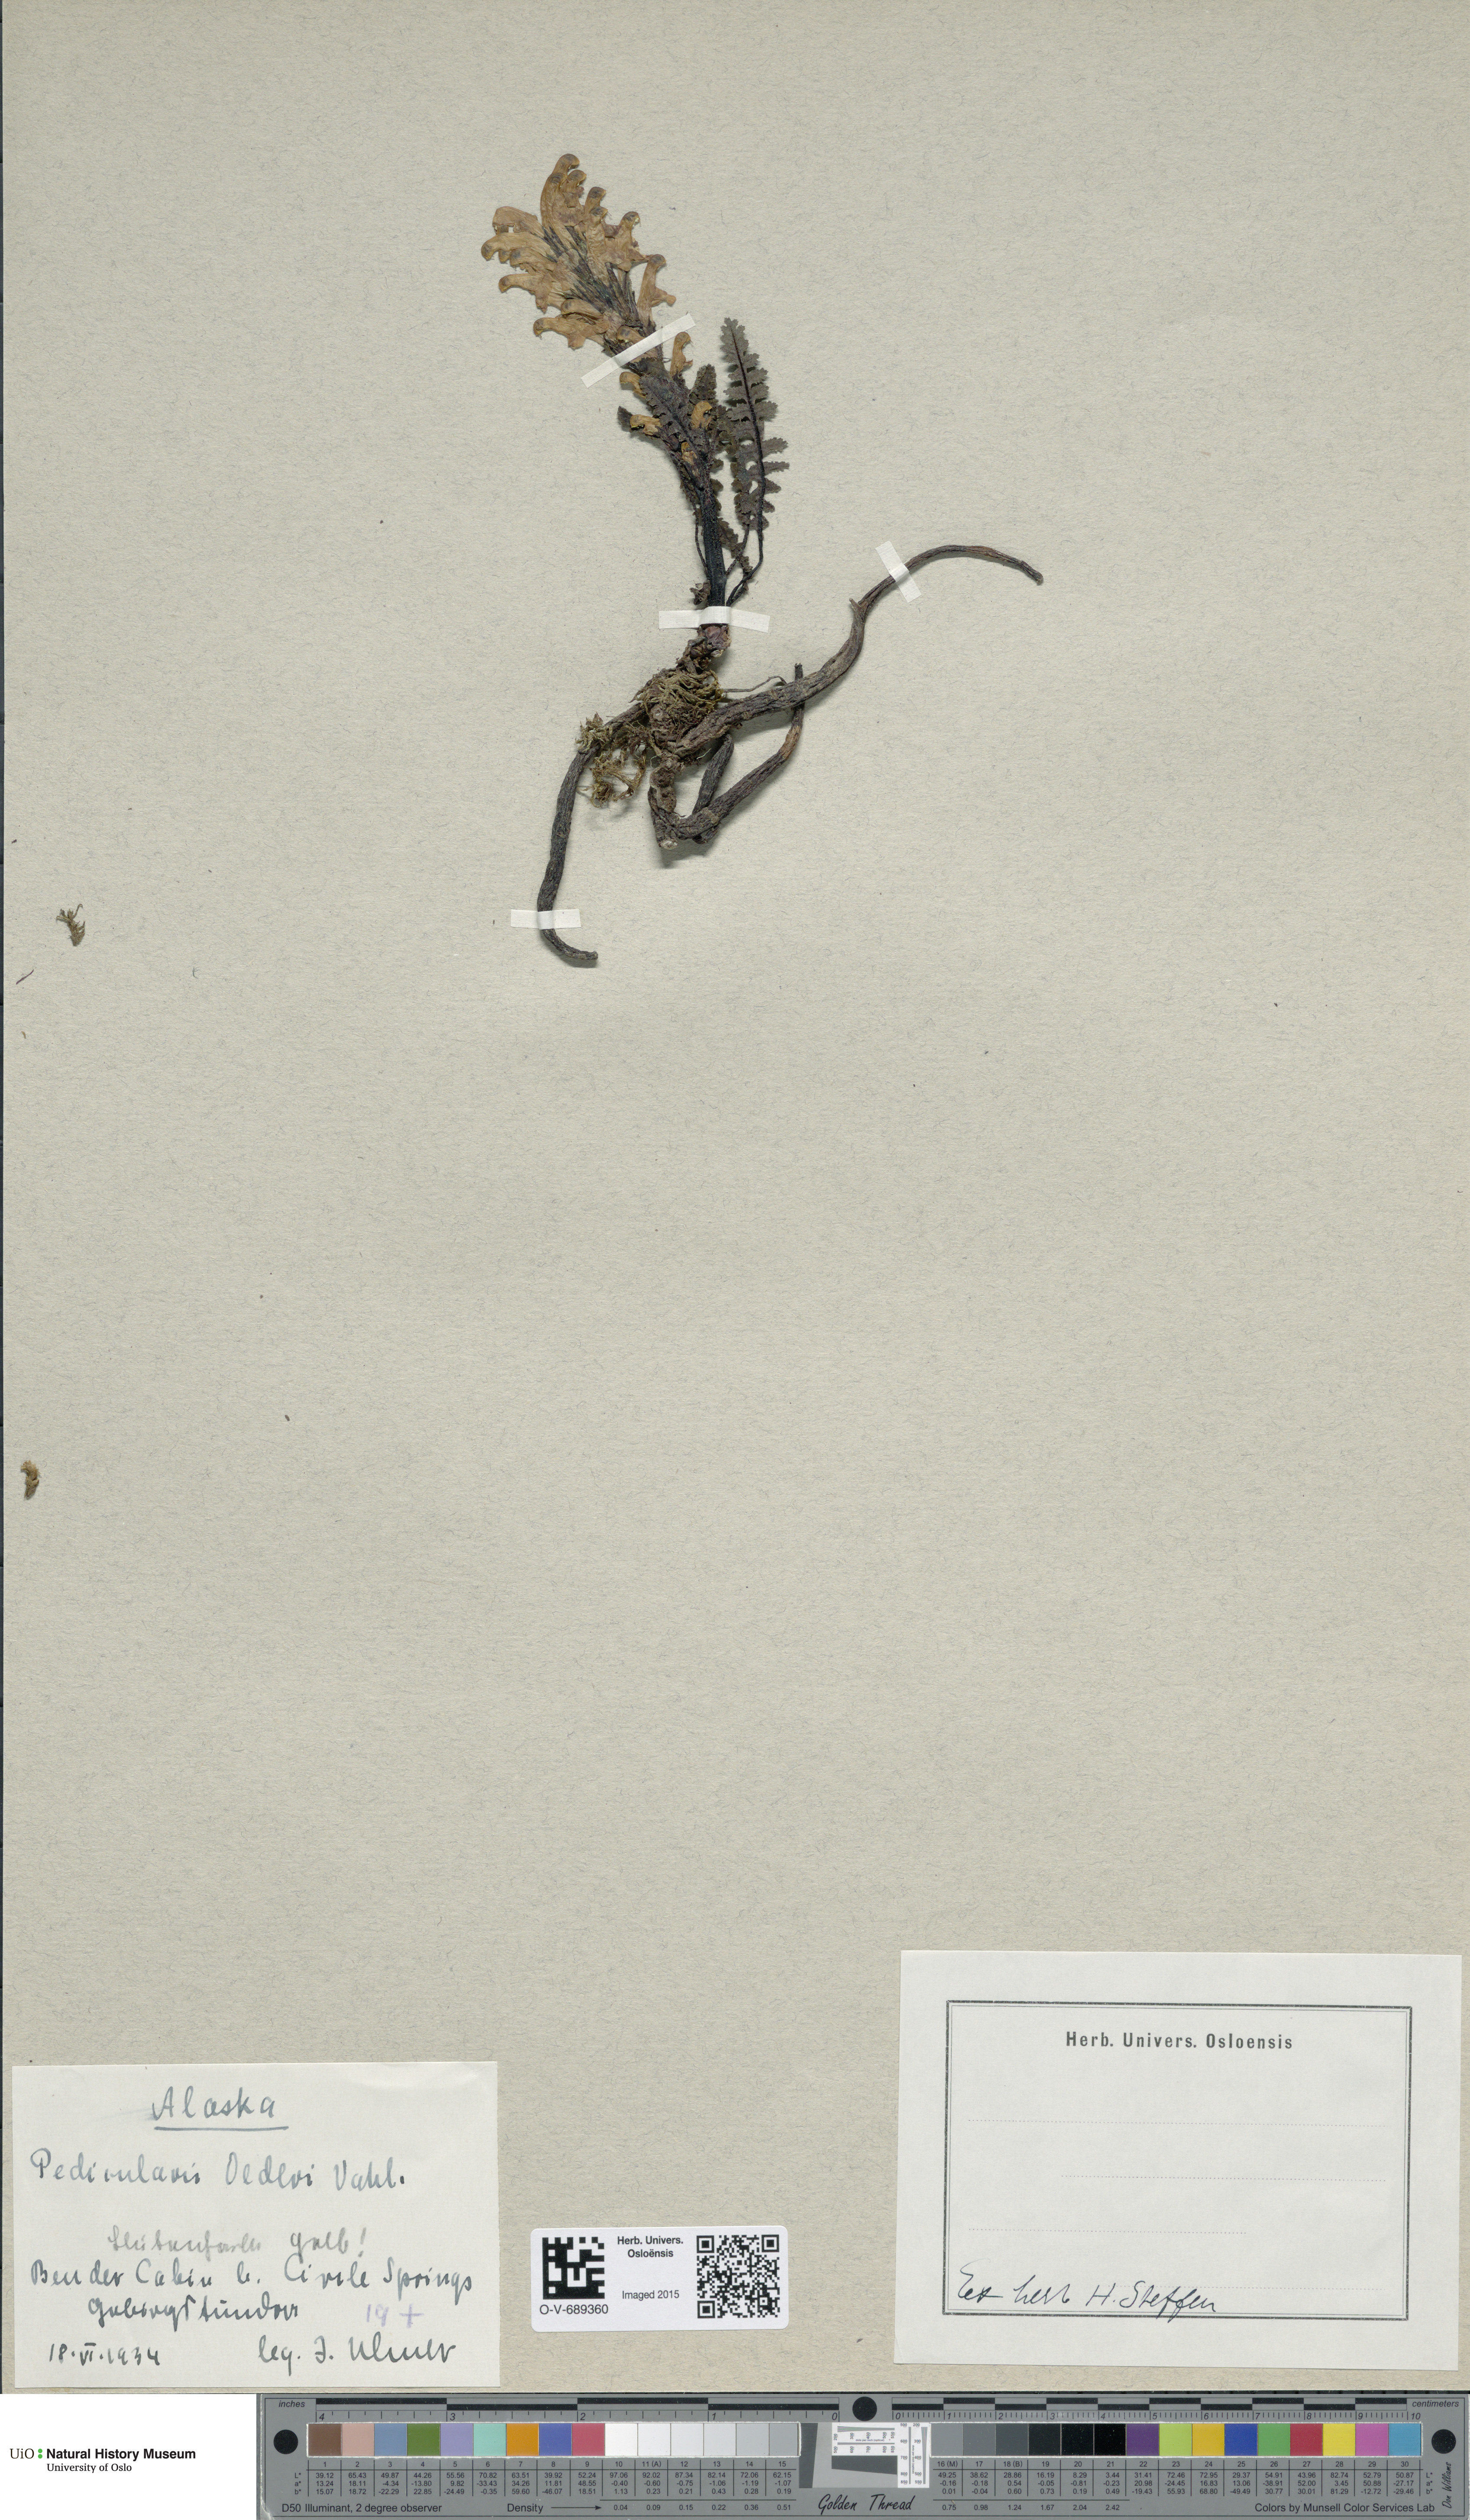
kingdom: Plantae
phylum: Tracheophyta
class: Magnoliopsida
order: Lamiales
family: Orobanchaceae
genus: Pedicularis
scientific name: Pedicularis oederi
